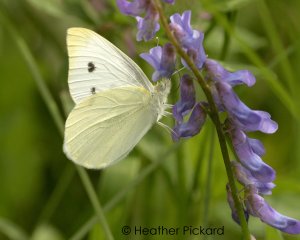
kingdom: Animalia
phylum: Arthropoda
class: Insecta
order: Lepidoptera
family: Pieridae
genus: Pieris
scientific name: Pieris rapae
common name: Cabbage White
